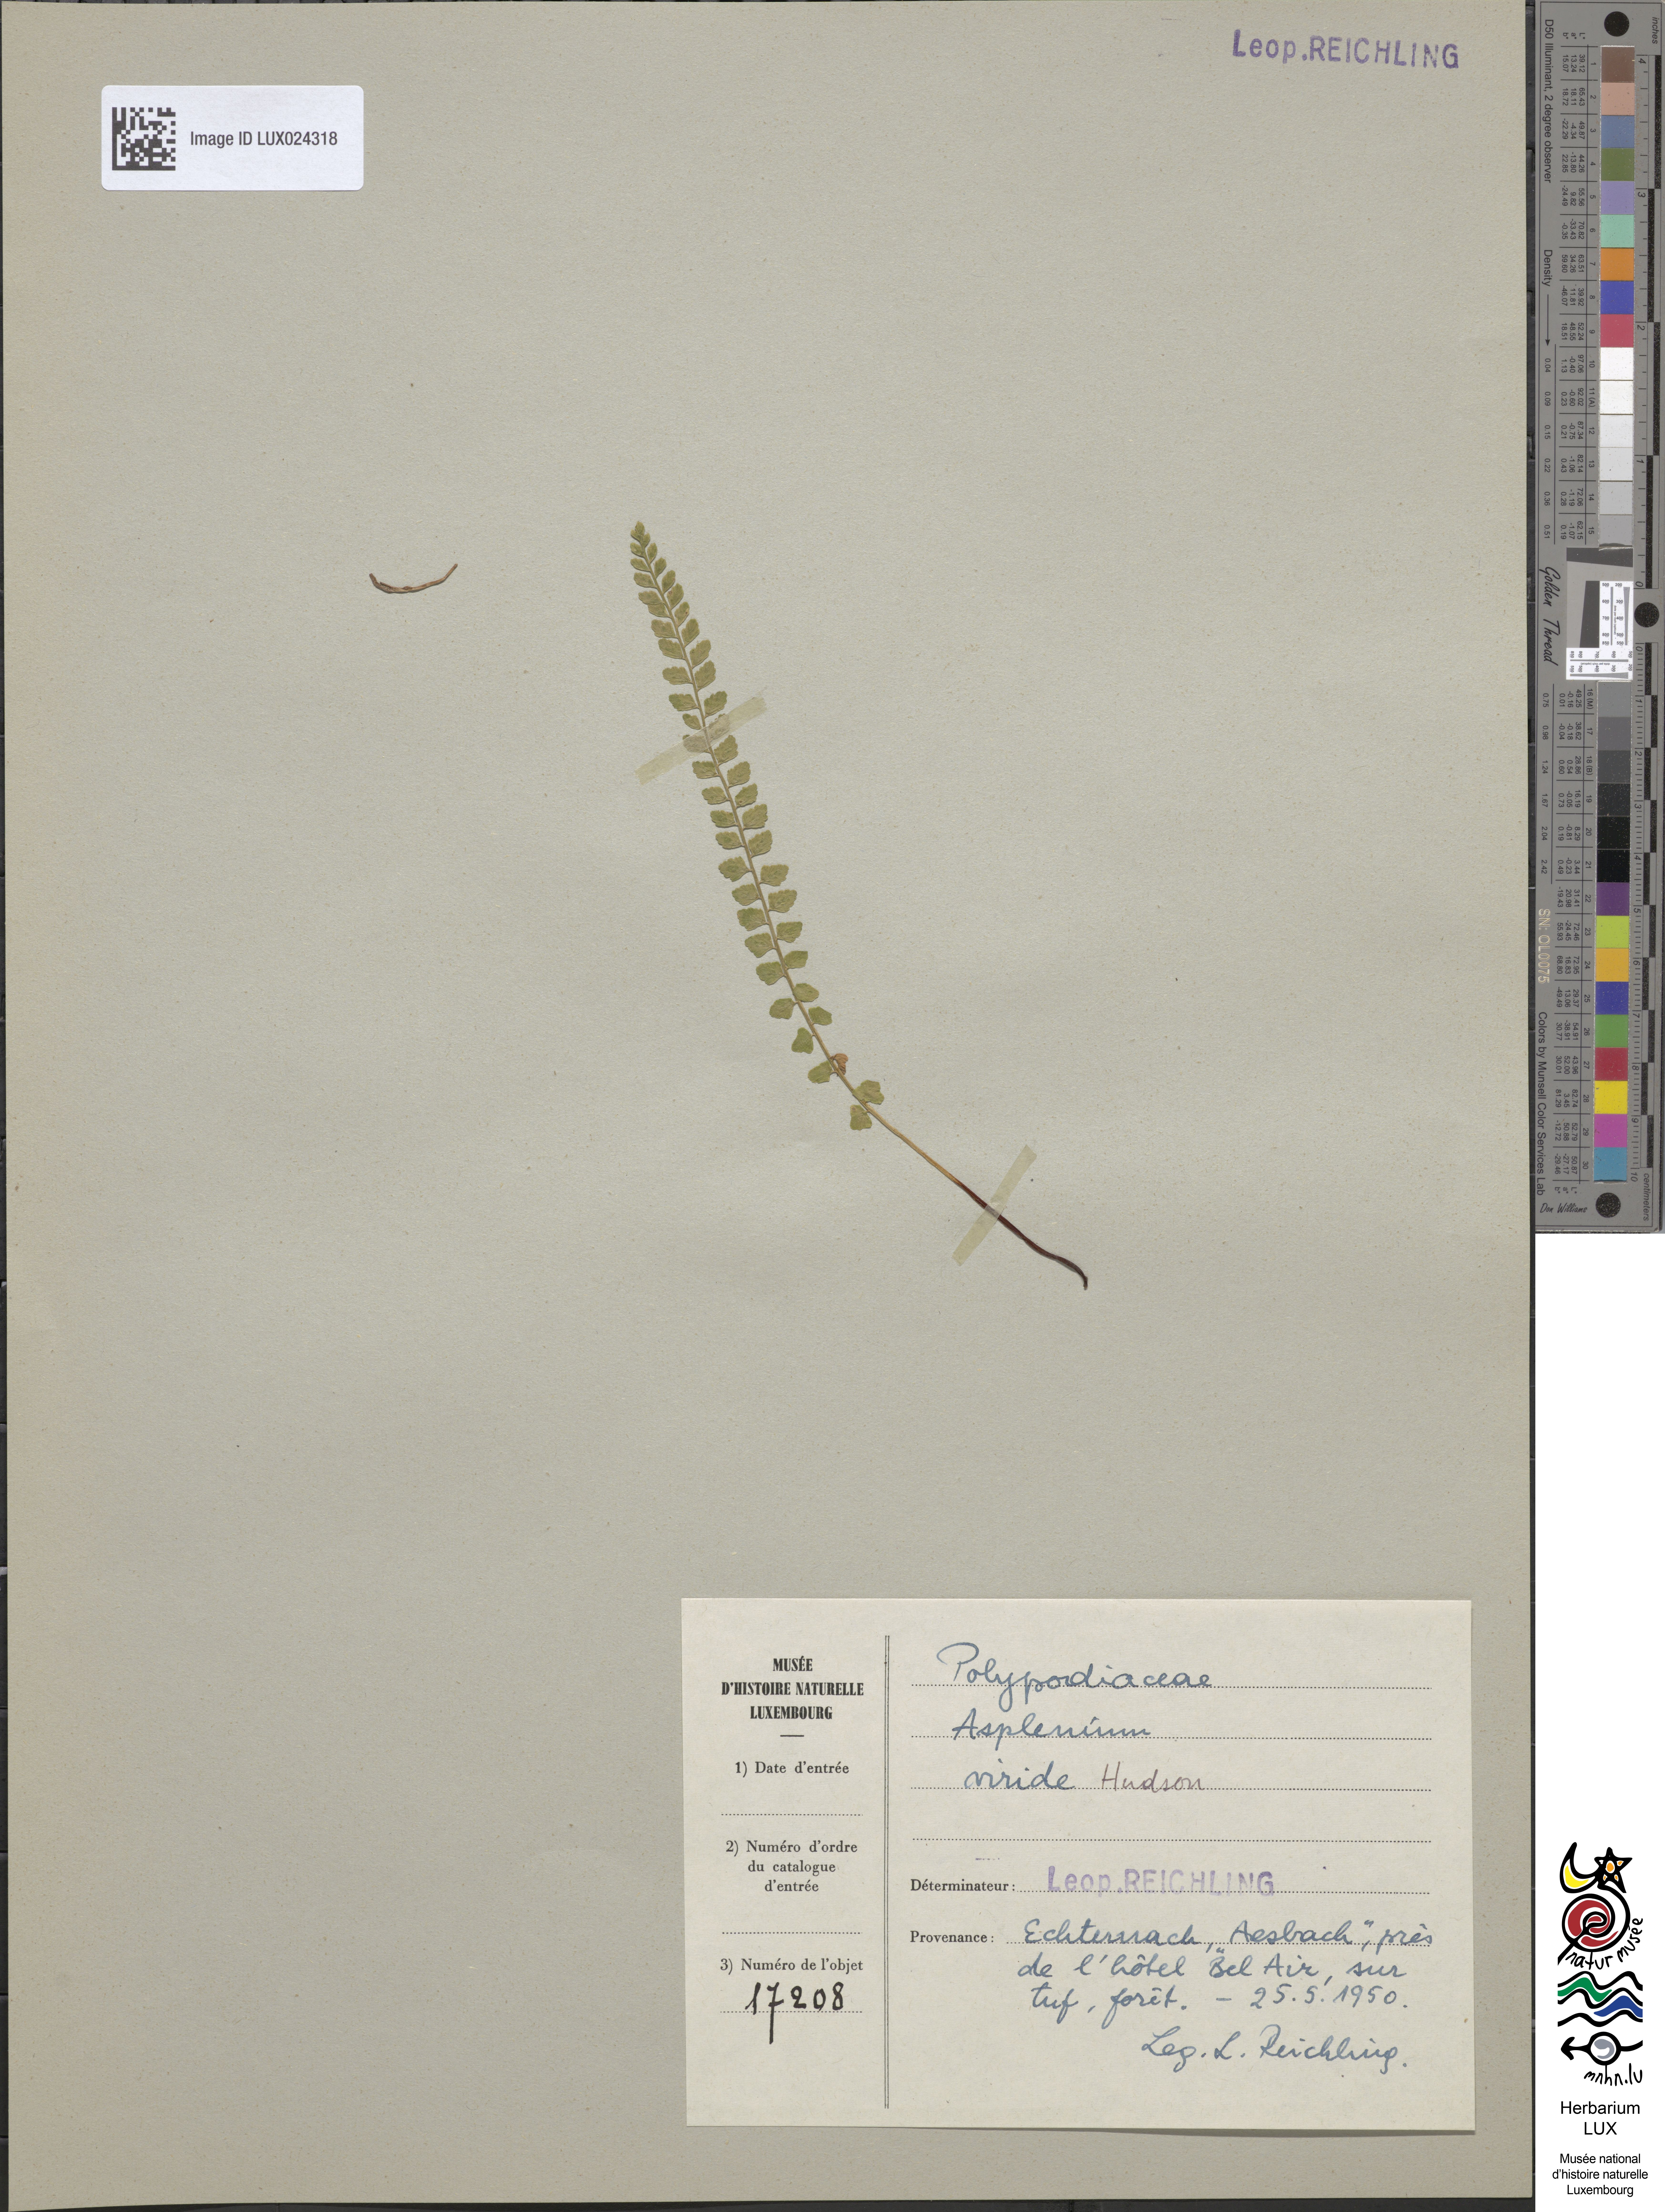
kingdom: Plantae
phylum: Tracheophyta
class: Polypodiopsida
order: Polypodiales
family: Aspleniaceae
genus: Asplenium
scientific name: Asplenium viride
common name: Green spleenwort
